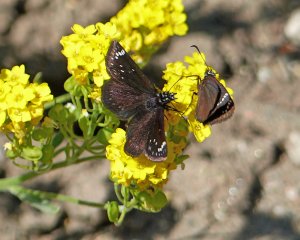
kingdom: Animalia
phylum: Arthropoda
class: Insecta
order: Lepidoptera
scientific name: Lepidoptera
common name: Butterflies
